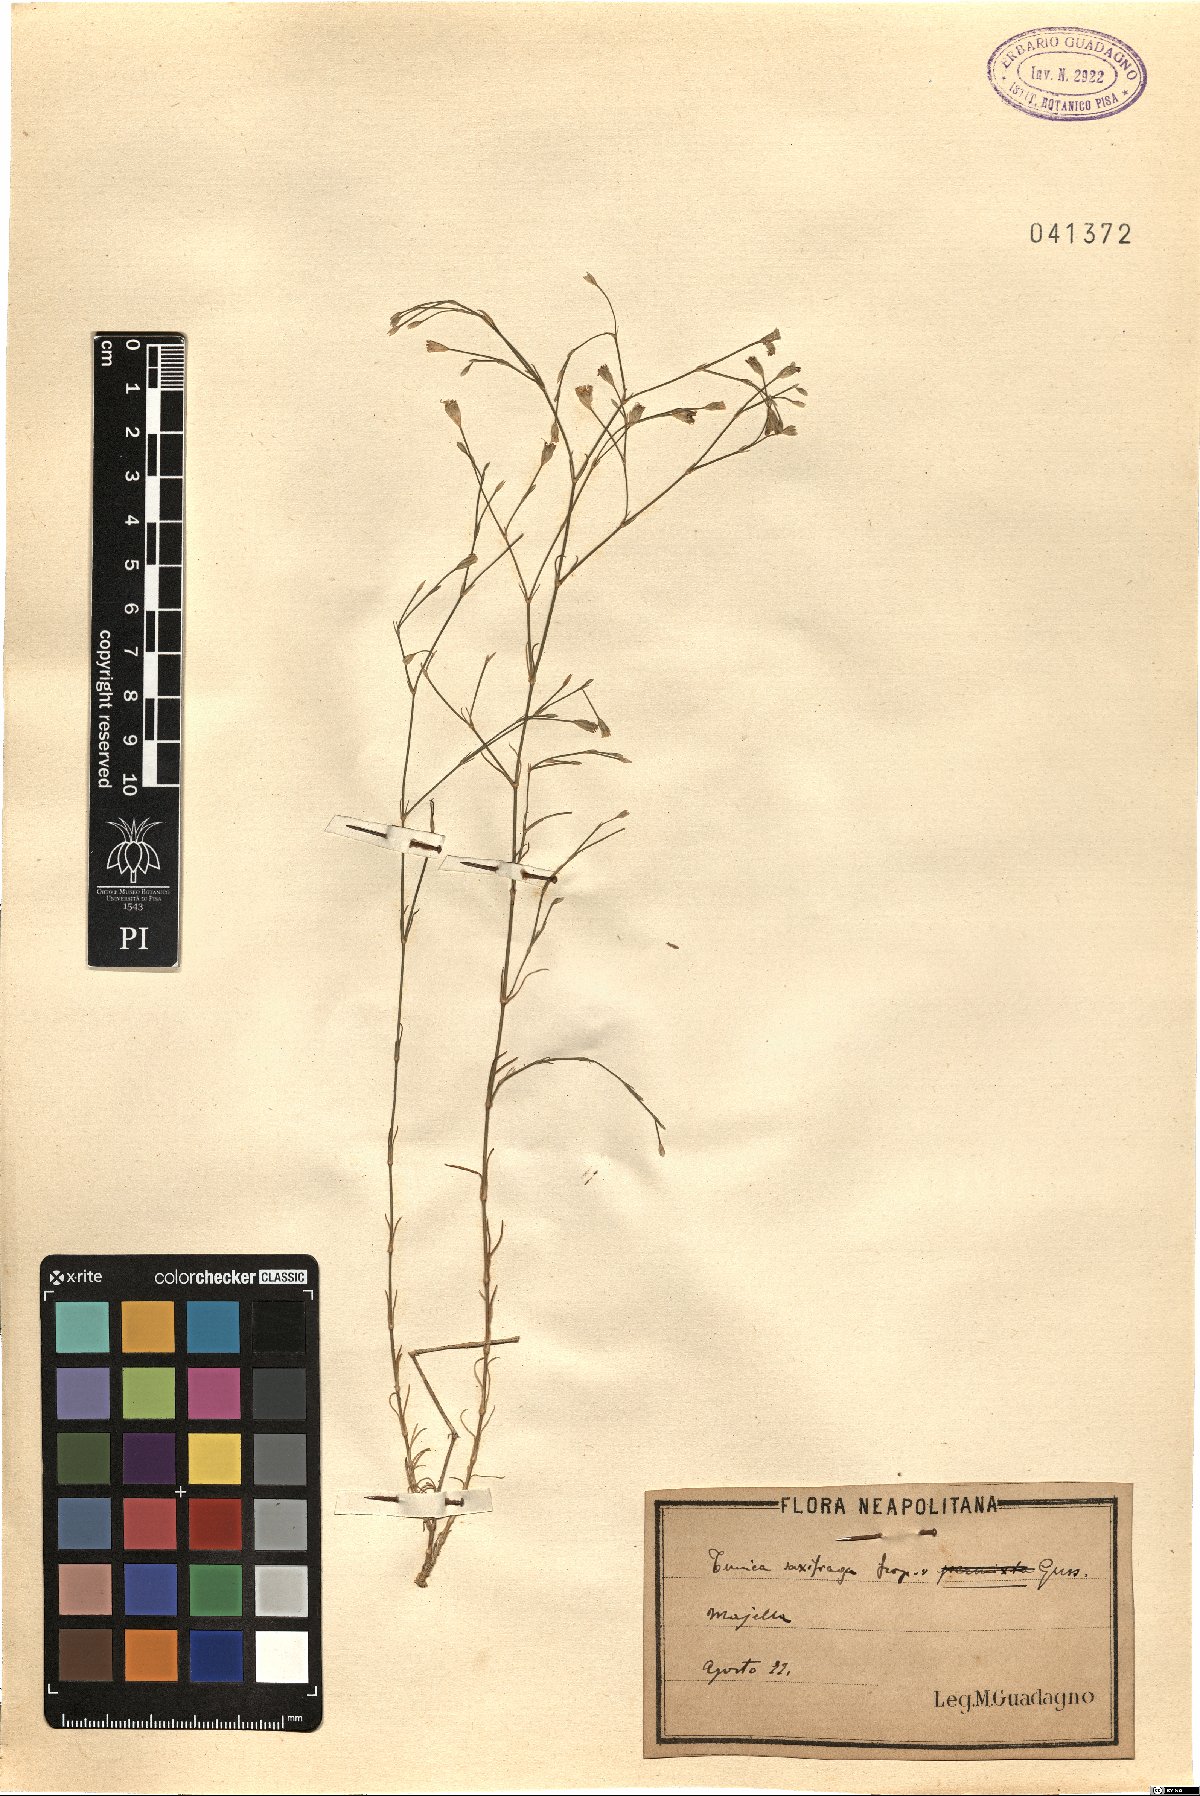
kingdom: Plantae
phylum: Tracheophyta
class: Magnoliopsida
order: Caryophyllales
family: Caryophyllaceae
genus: Petrorhagia
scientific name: Petrorhagia saxifraga
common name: Tunicflower
